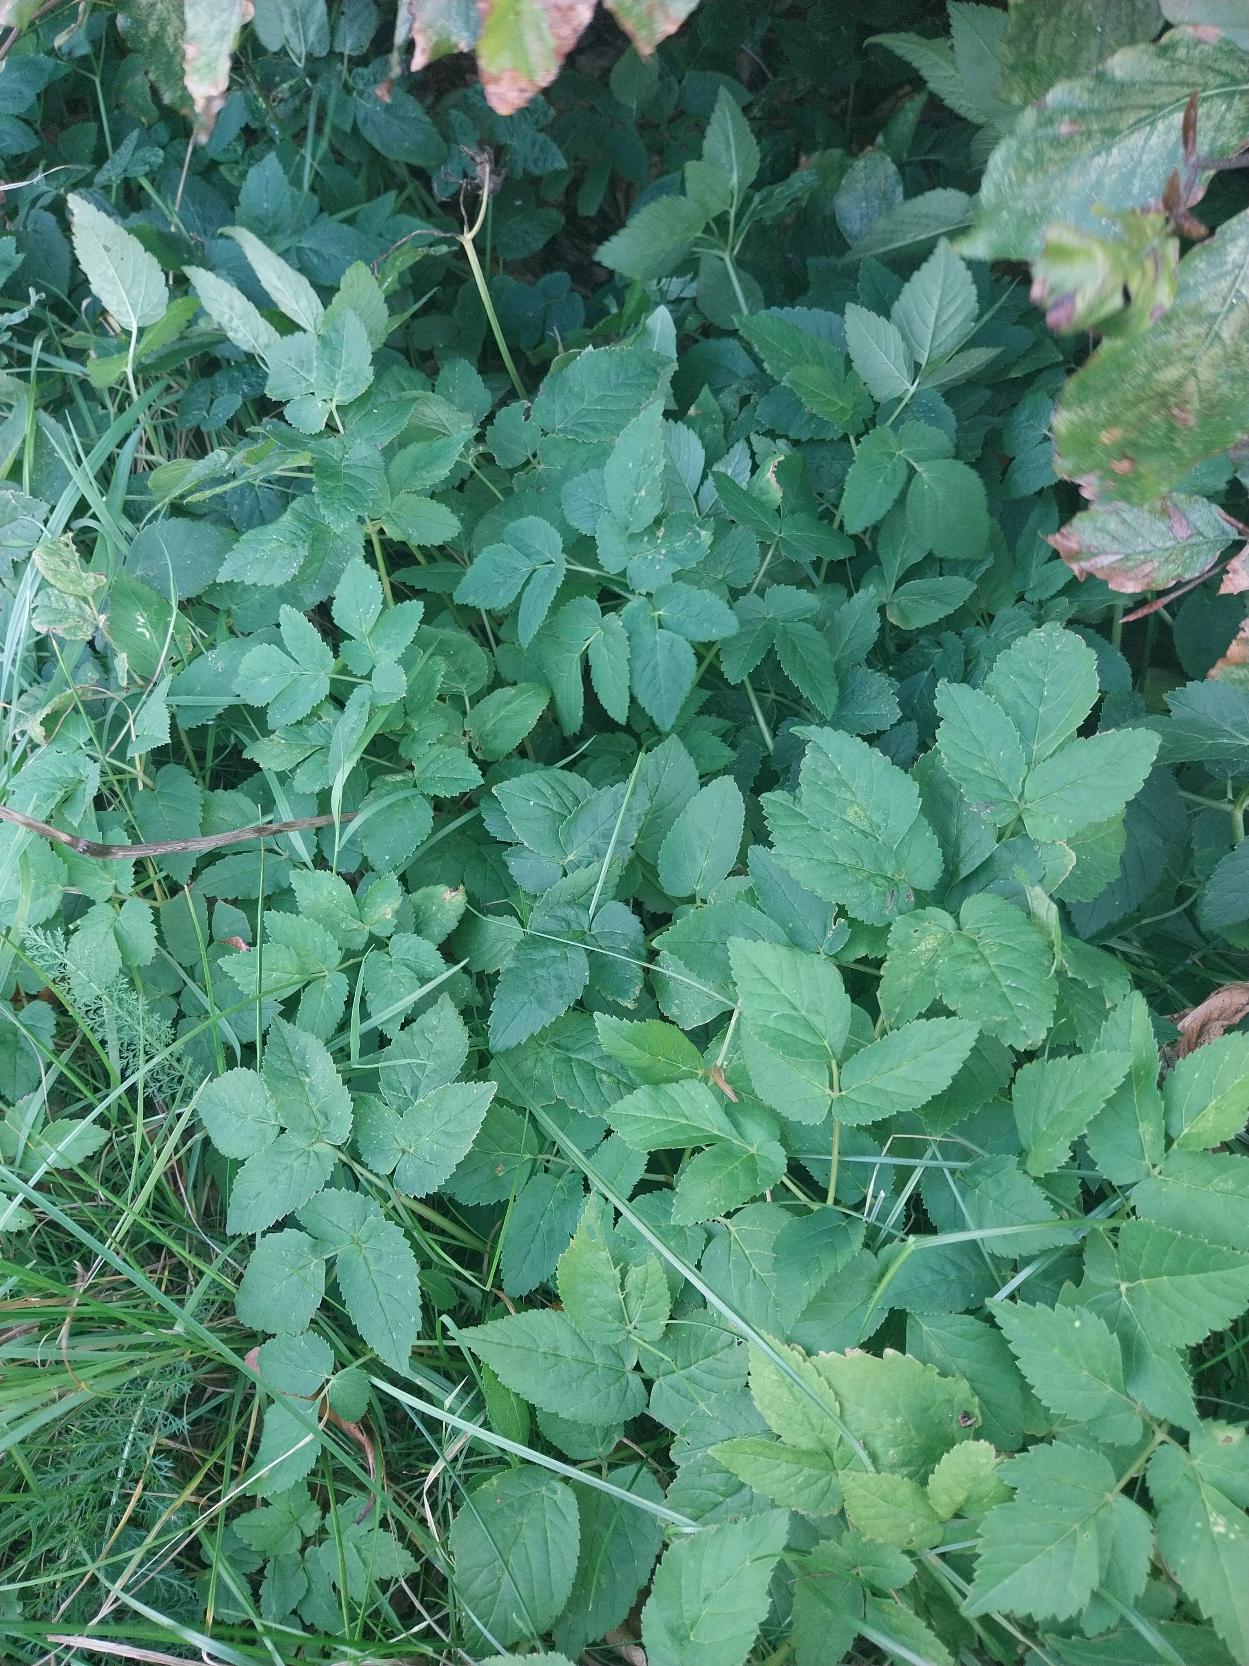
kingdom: Plantae
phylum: Tracheophyta
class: Magnoliopsida
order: Apiales
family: Apiaceae
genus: Aegopodium
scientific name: Aegopodium podagraria
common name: Skvalderkål
